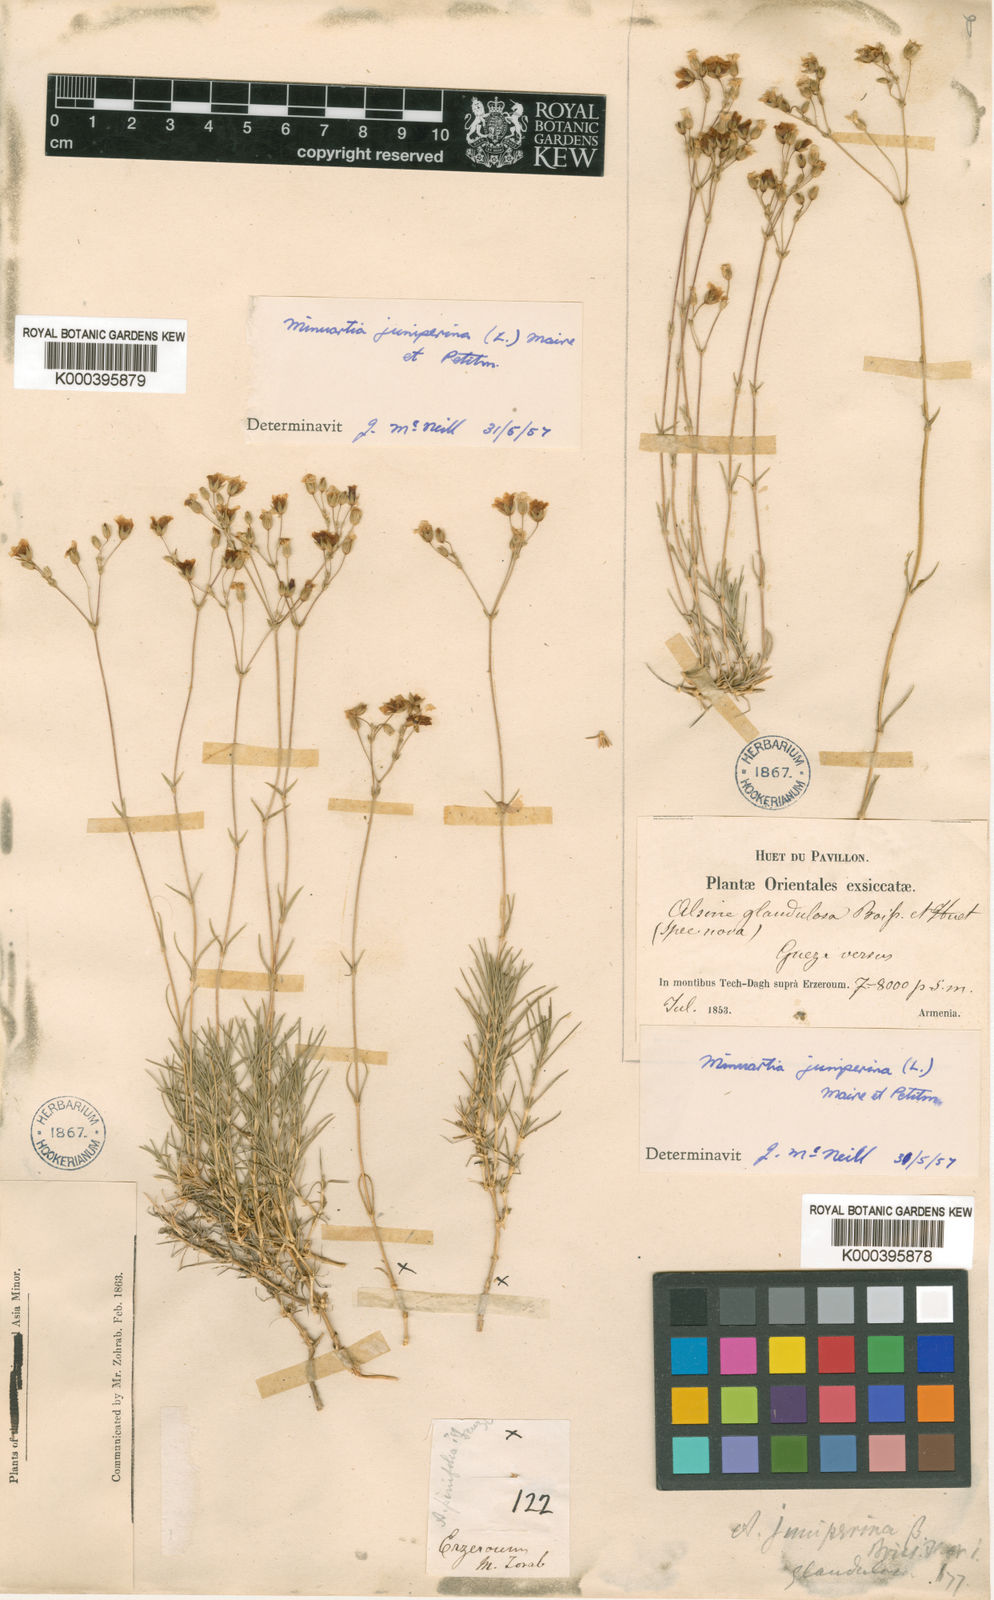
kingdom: Plantae
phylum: Tracheophyta
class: Magnoliopsida
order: Caryophyllales
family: Caryophyllaceae
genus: Sabulina
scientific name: Sabulina juniperina
